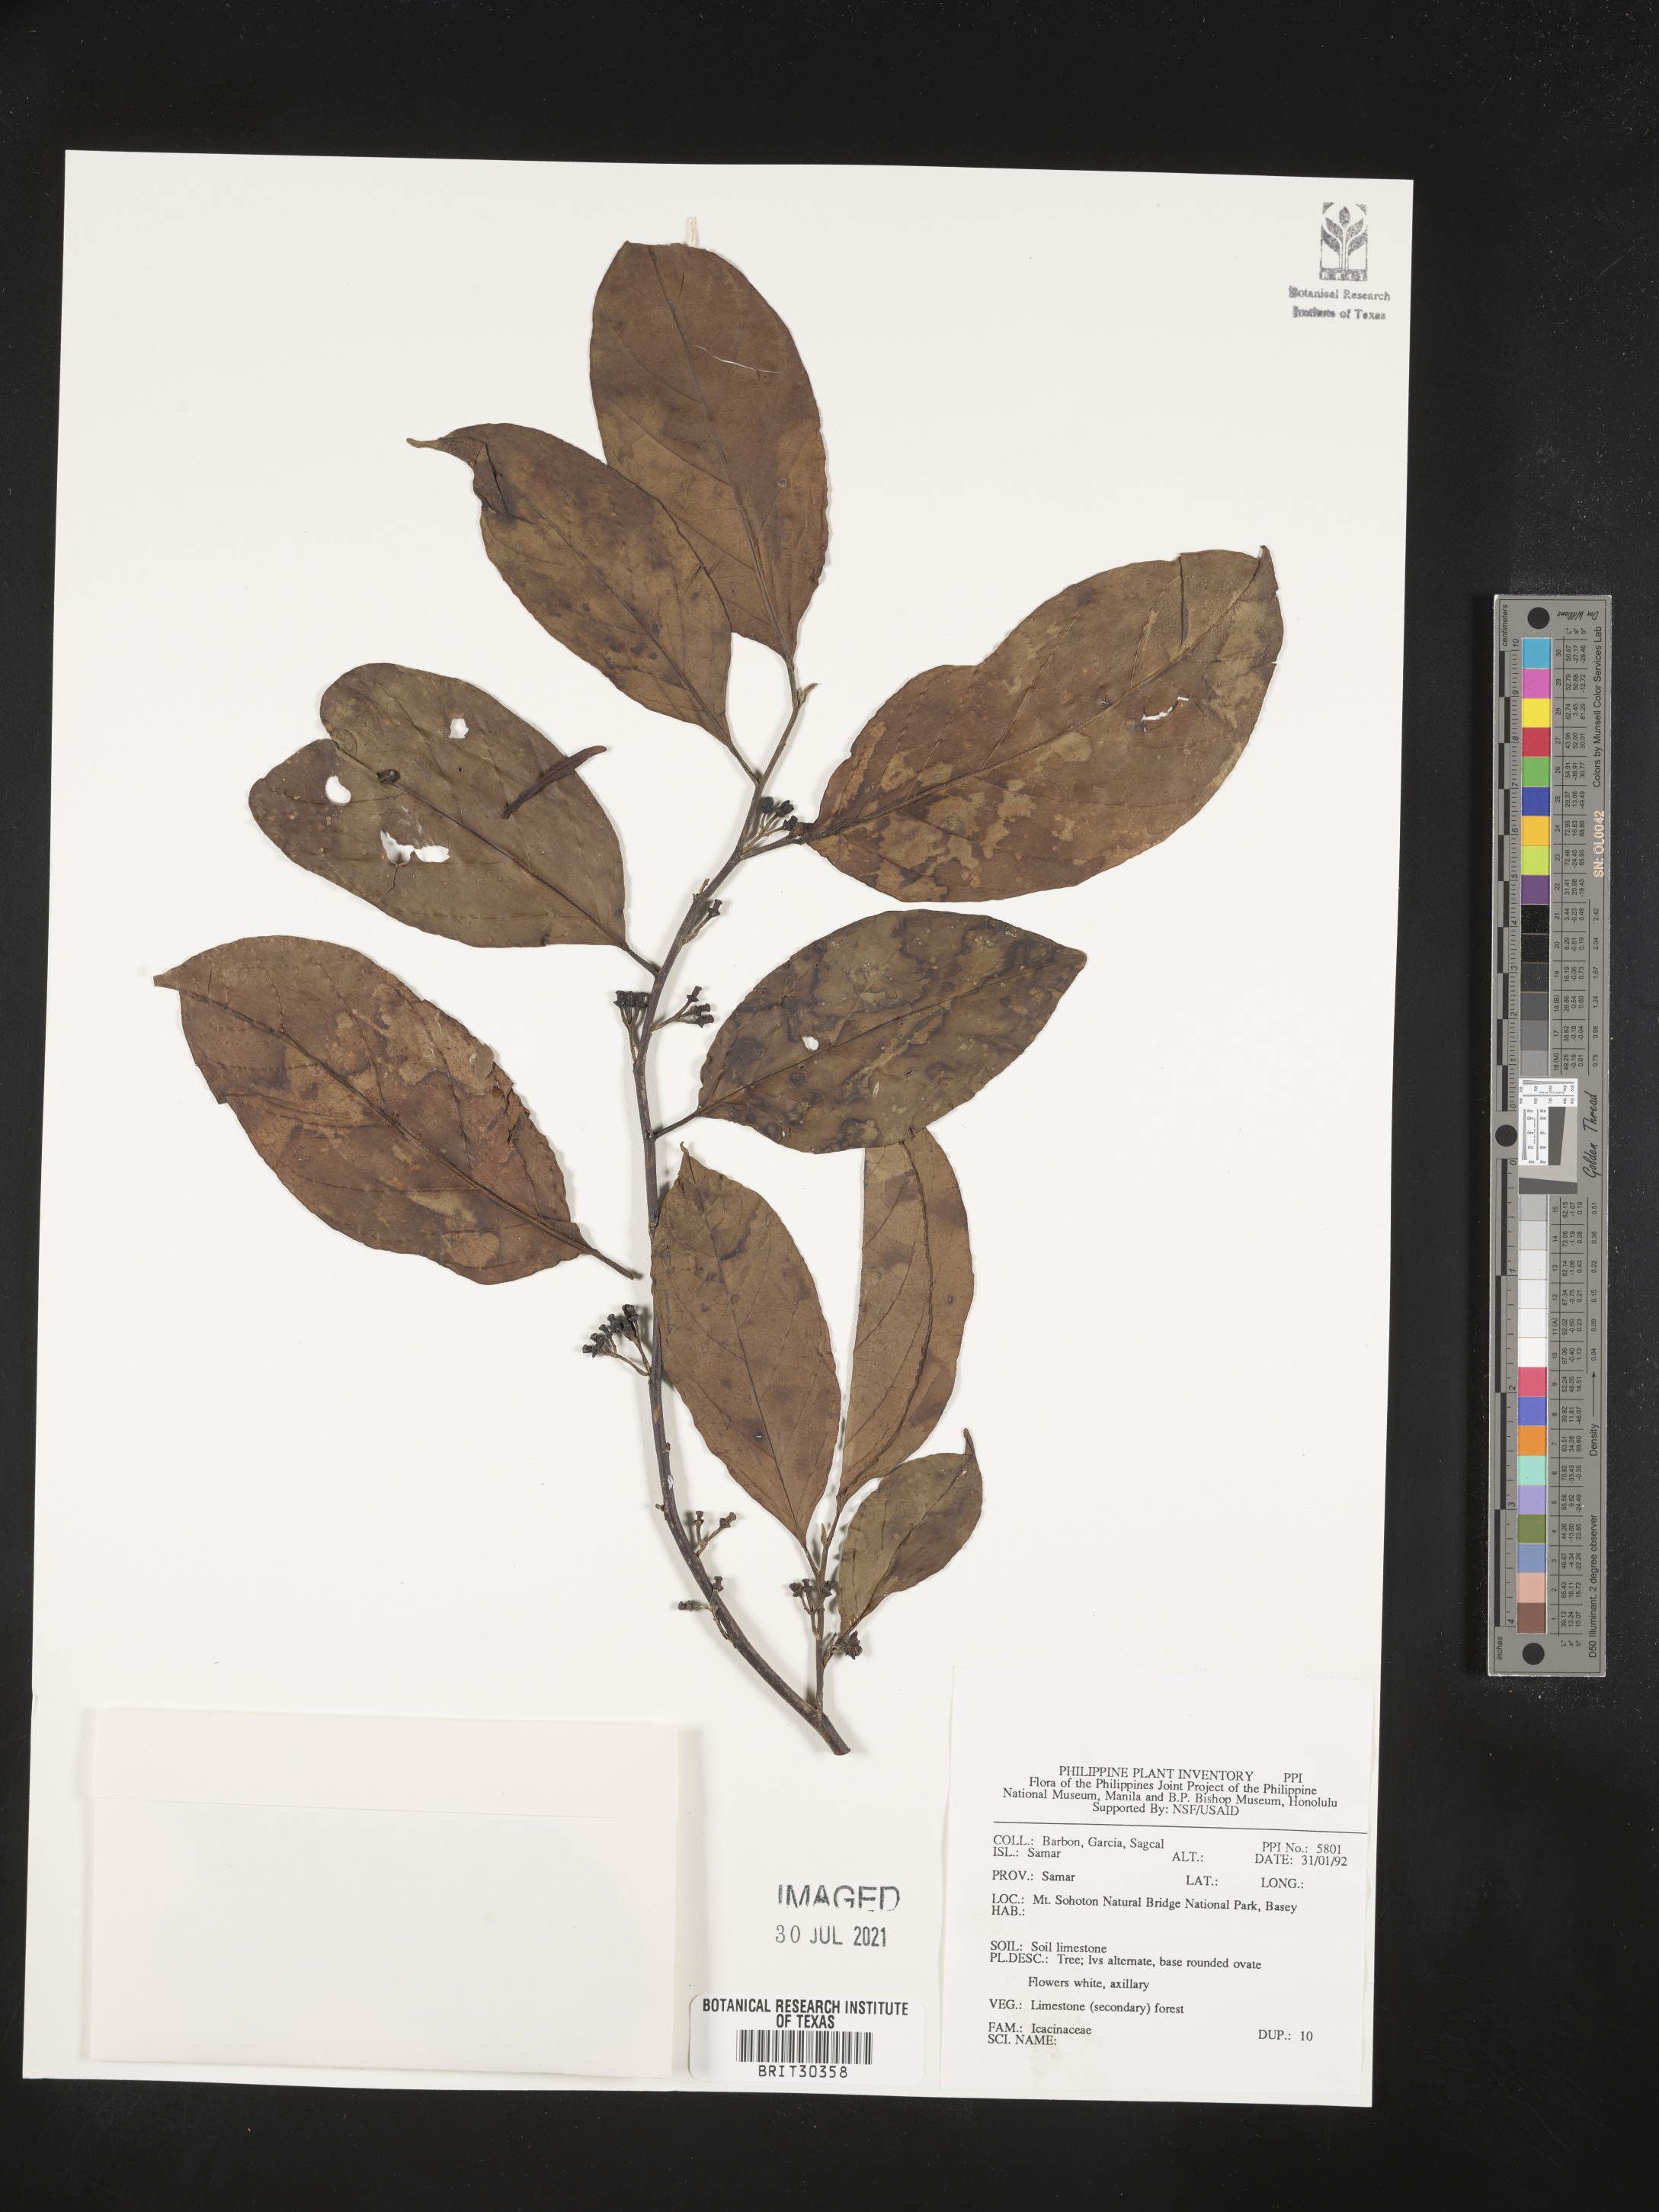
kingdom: Plantae
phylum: Tracheophyta
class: Magnoliopsida
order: Icacinales
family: Icacinaceae
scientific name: Icacinaceae
